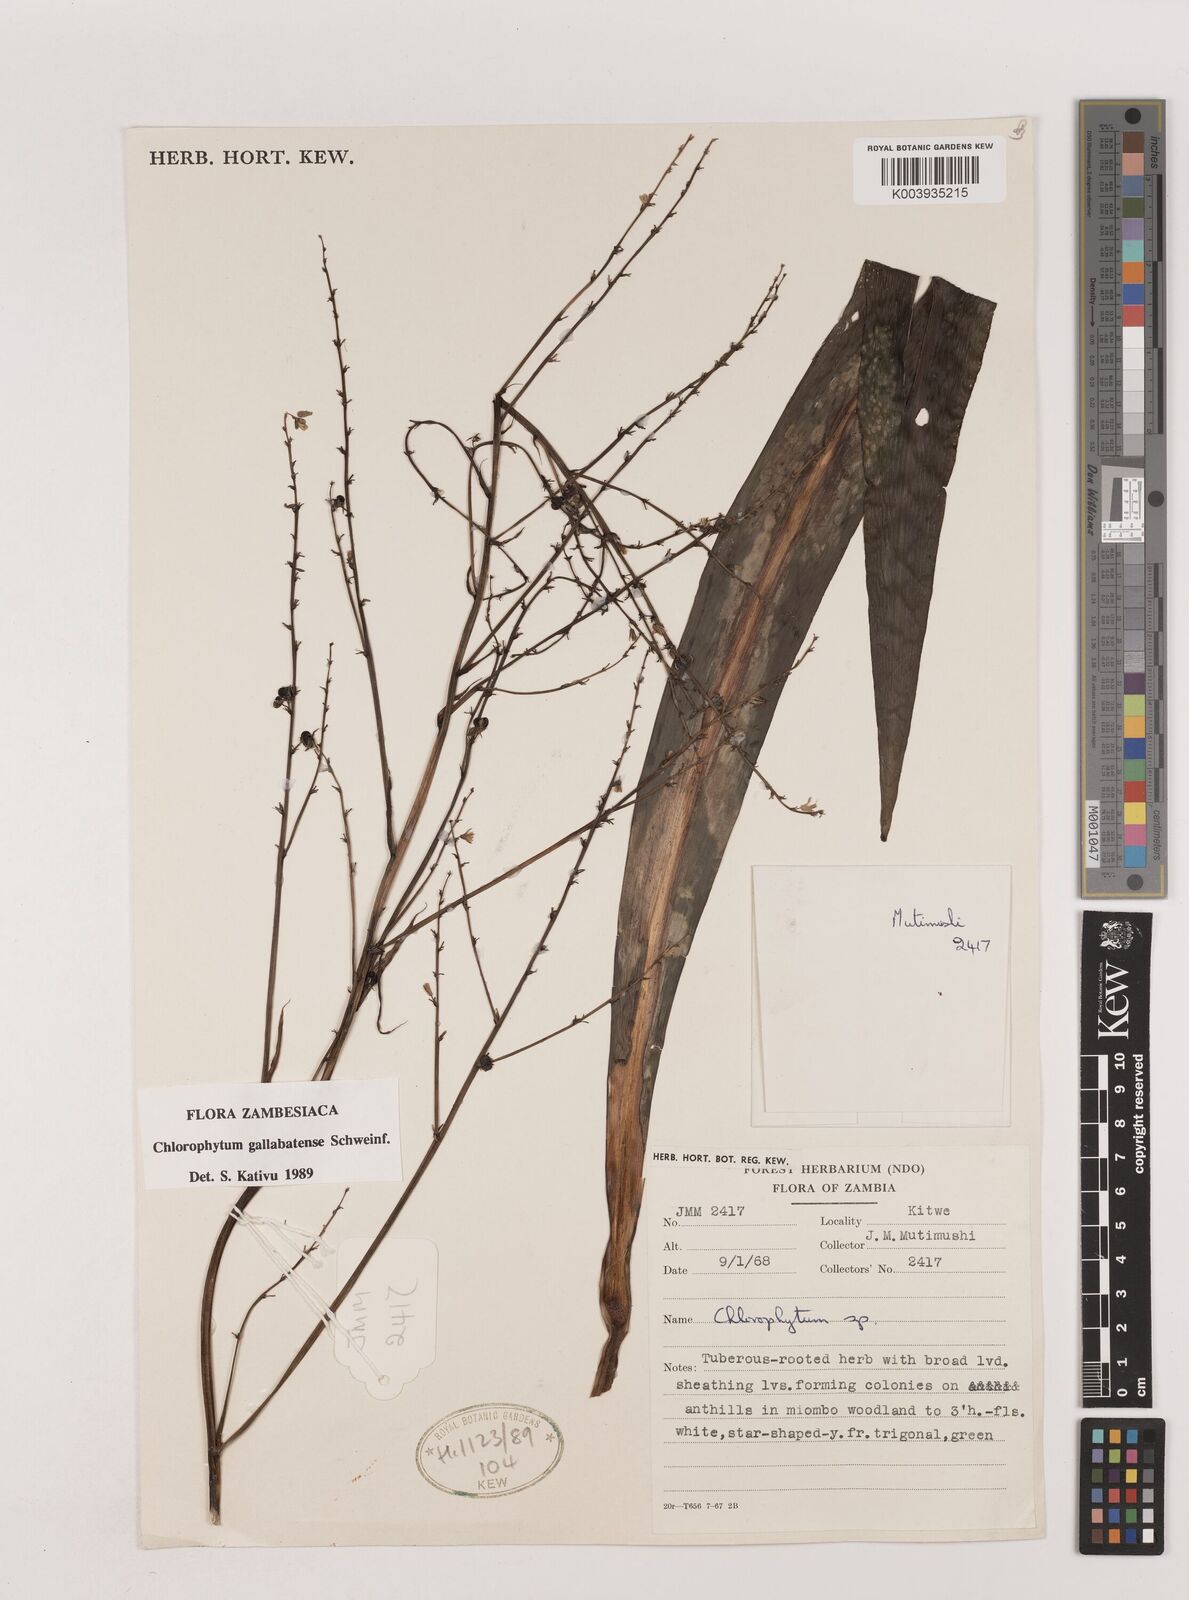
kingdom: Plantae
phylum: Tracheophyta
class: Liliopsida
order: Asparagales
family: Asparagaceae
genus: Chlorophytum
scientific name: Chlorophytum gallabatense
